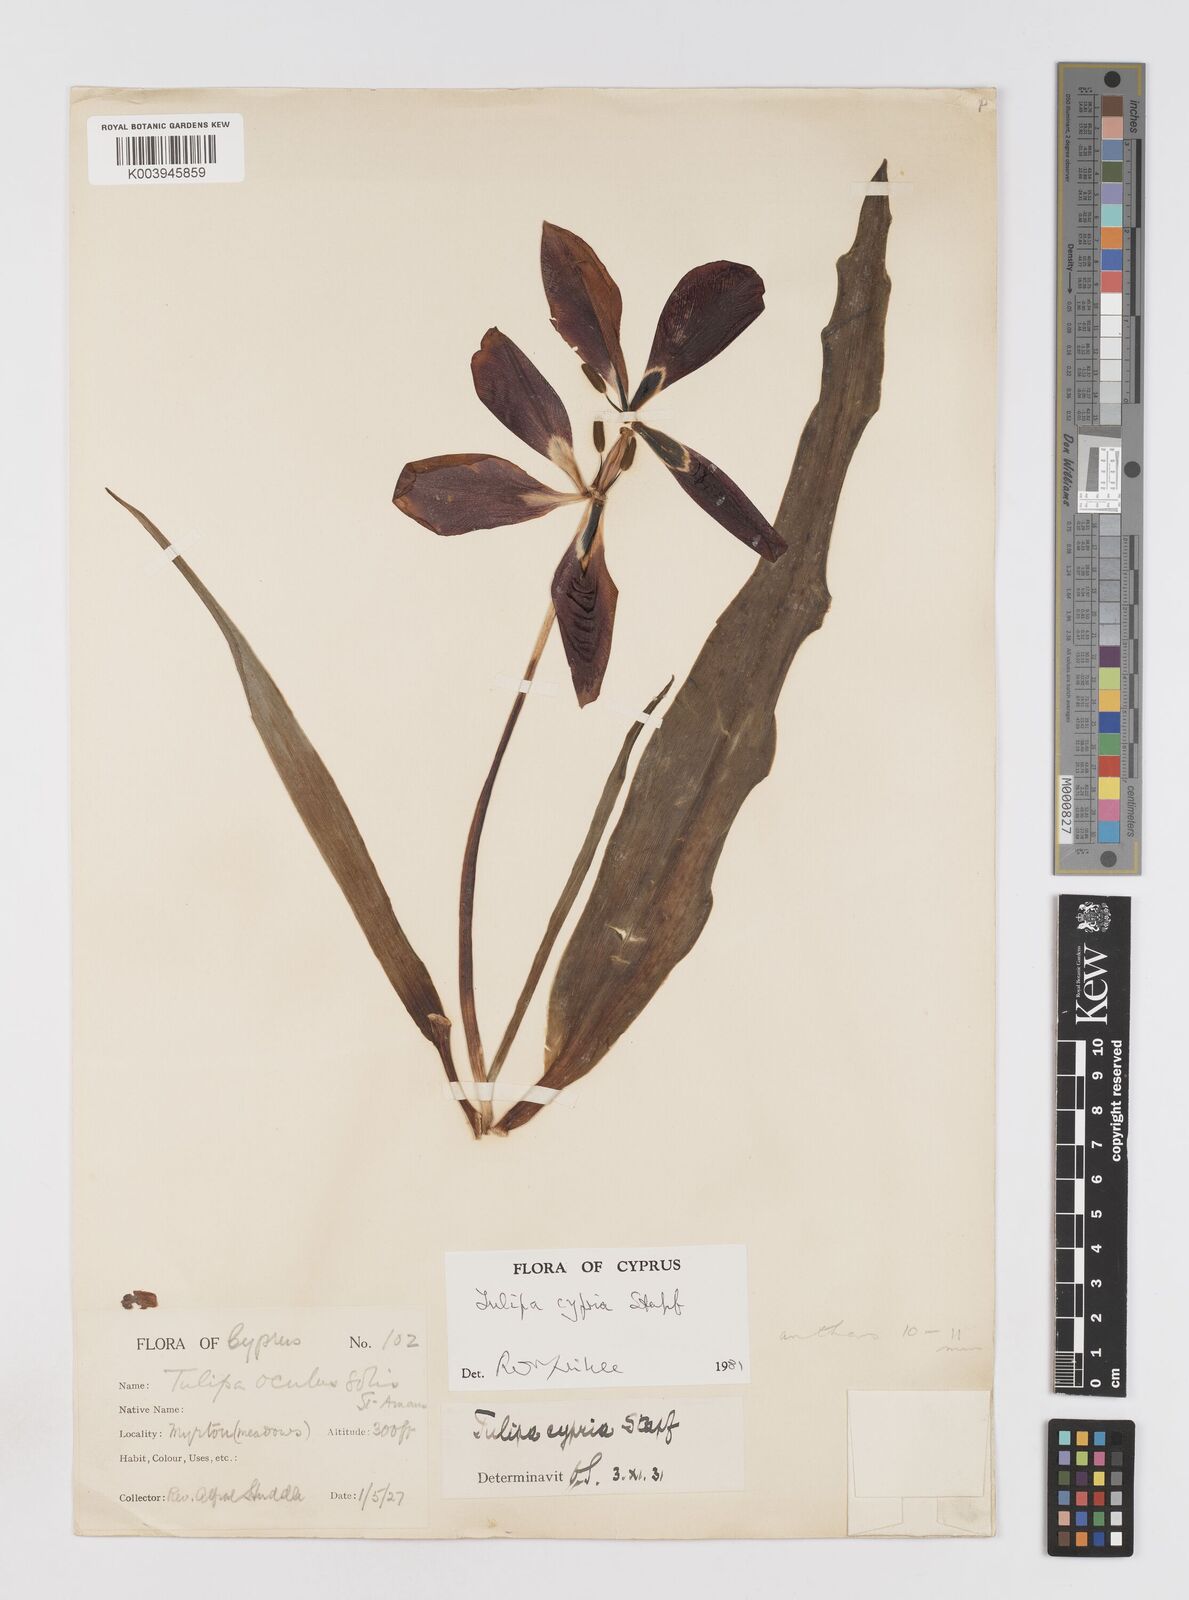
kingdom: Plantae
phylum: Tracheophyta
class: Liliopsida
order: Liliales
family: Liliaceae
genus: Tulipa
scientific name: Tulipa cypria
